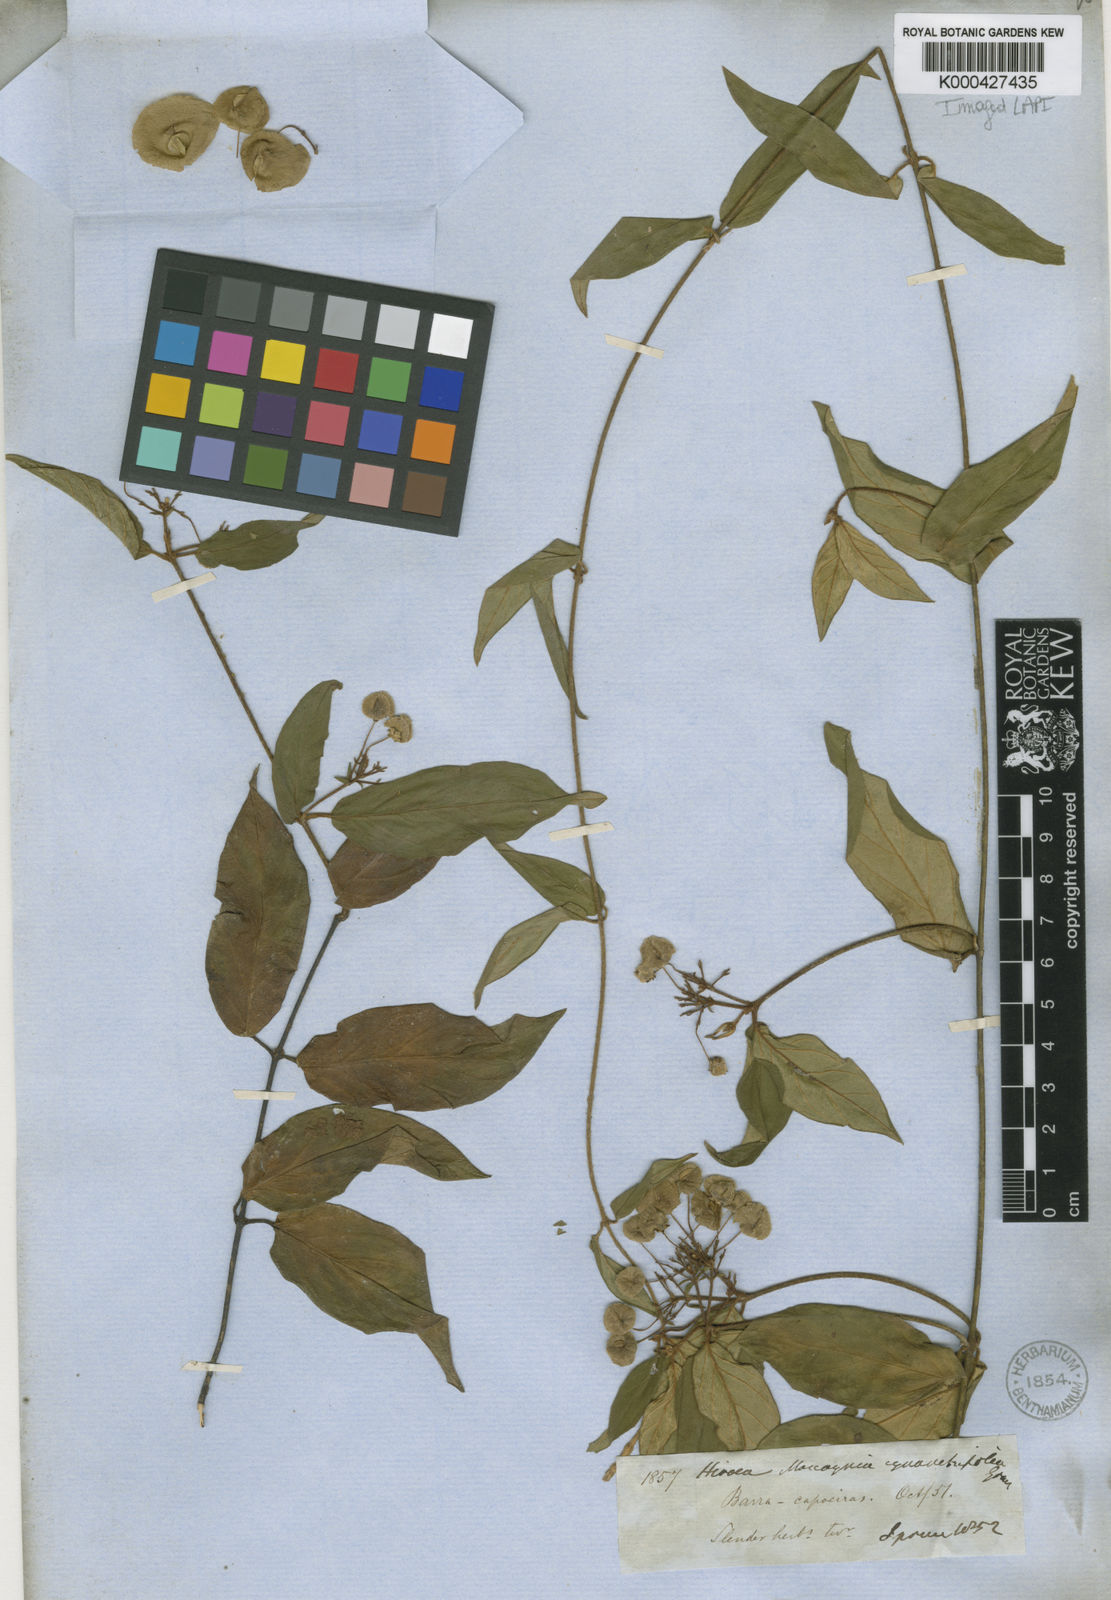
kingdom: Plantae
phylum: Tracheophyta
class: Magnoliopsida
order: Malpighiales
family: Malpighiaceae
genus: Mascagnia
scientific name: Mascagnia cynanchifolia
